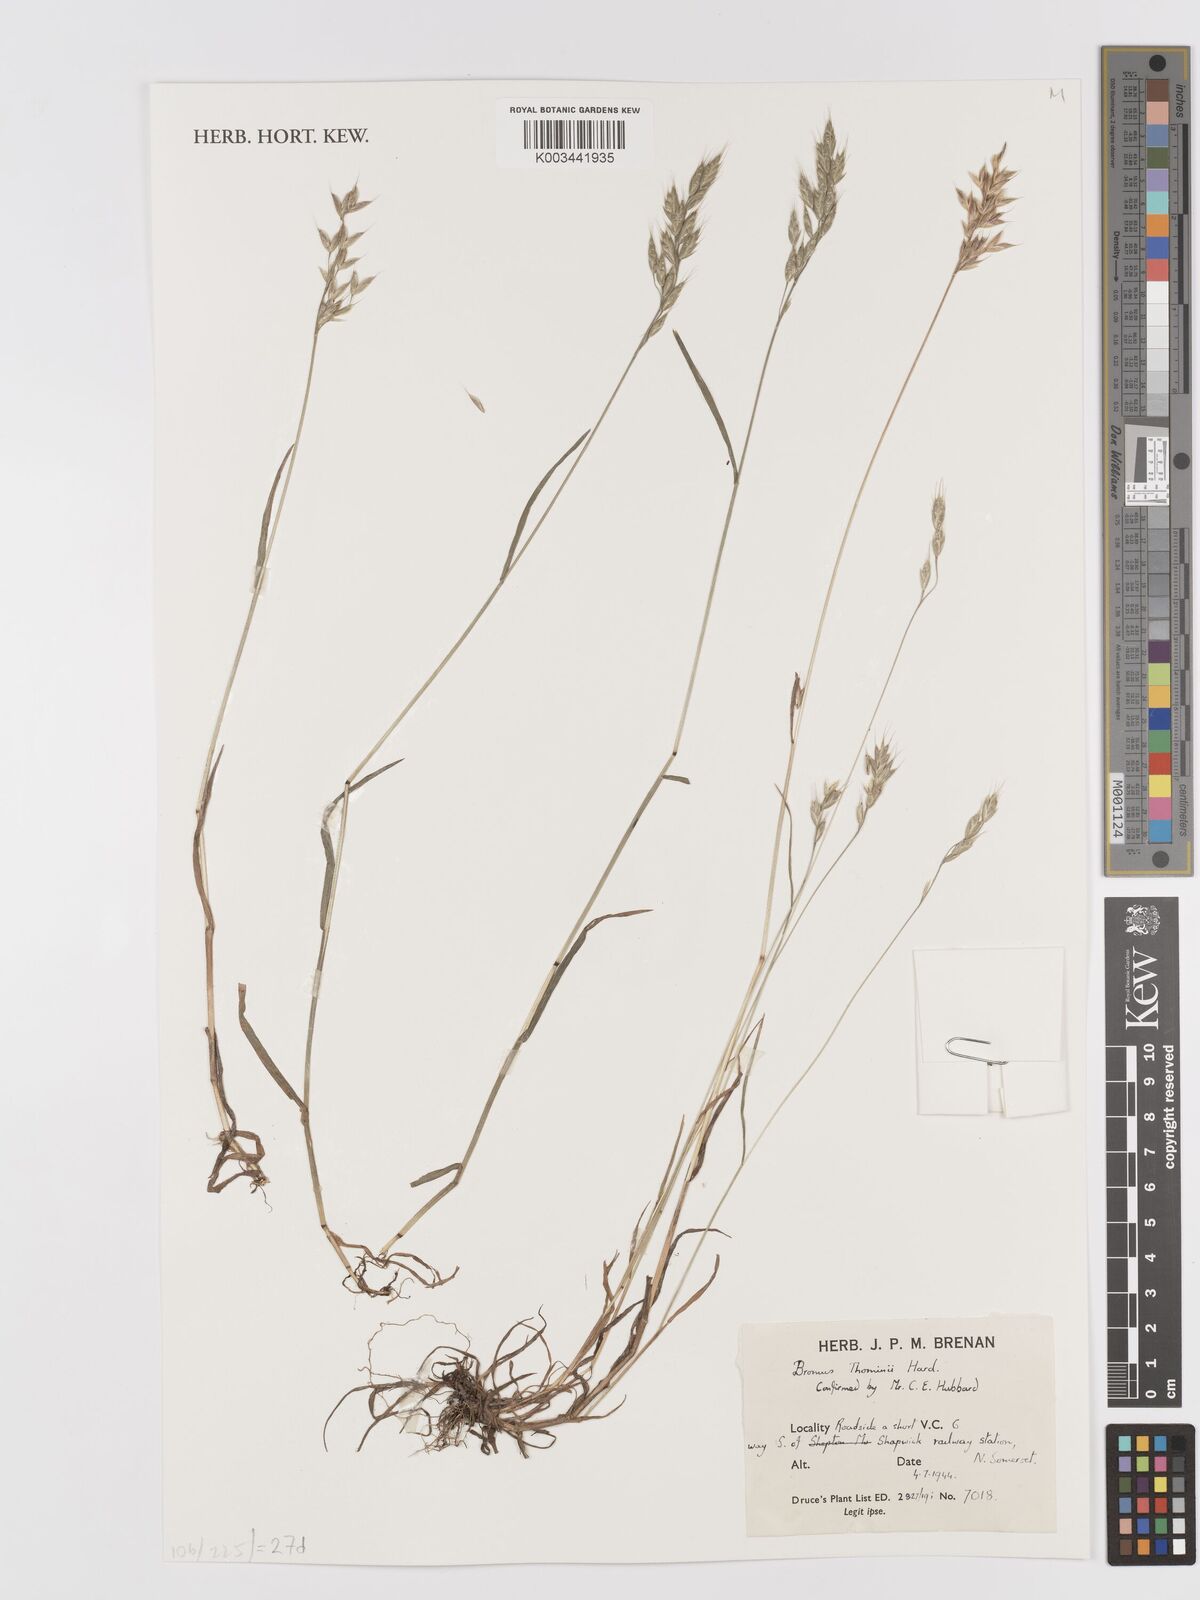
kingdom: Plantae
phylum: Tracheophyta
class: Liliopsida
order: Poales
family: Poaceae
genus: Bromus
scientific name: Bromus hordeaceus
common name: Soft brome
